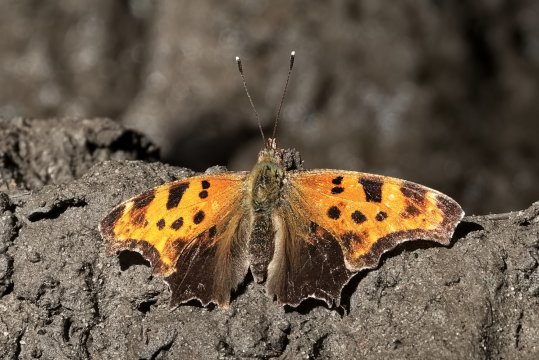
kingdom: Animalia
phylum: Arthropoda
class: Insecta
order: Lepidoptera
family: Nymphalidae
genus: Polygonia
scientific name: Polygonia comma
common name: Eastern Comma
